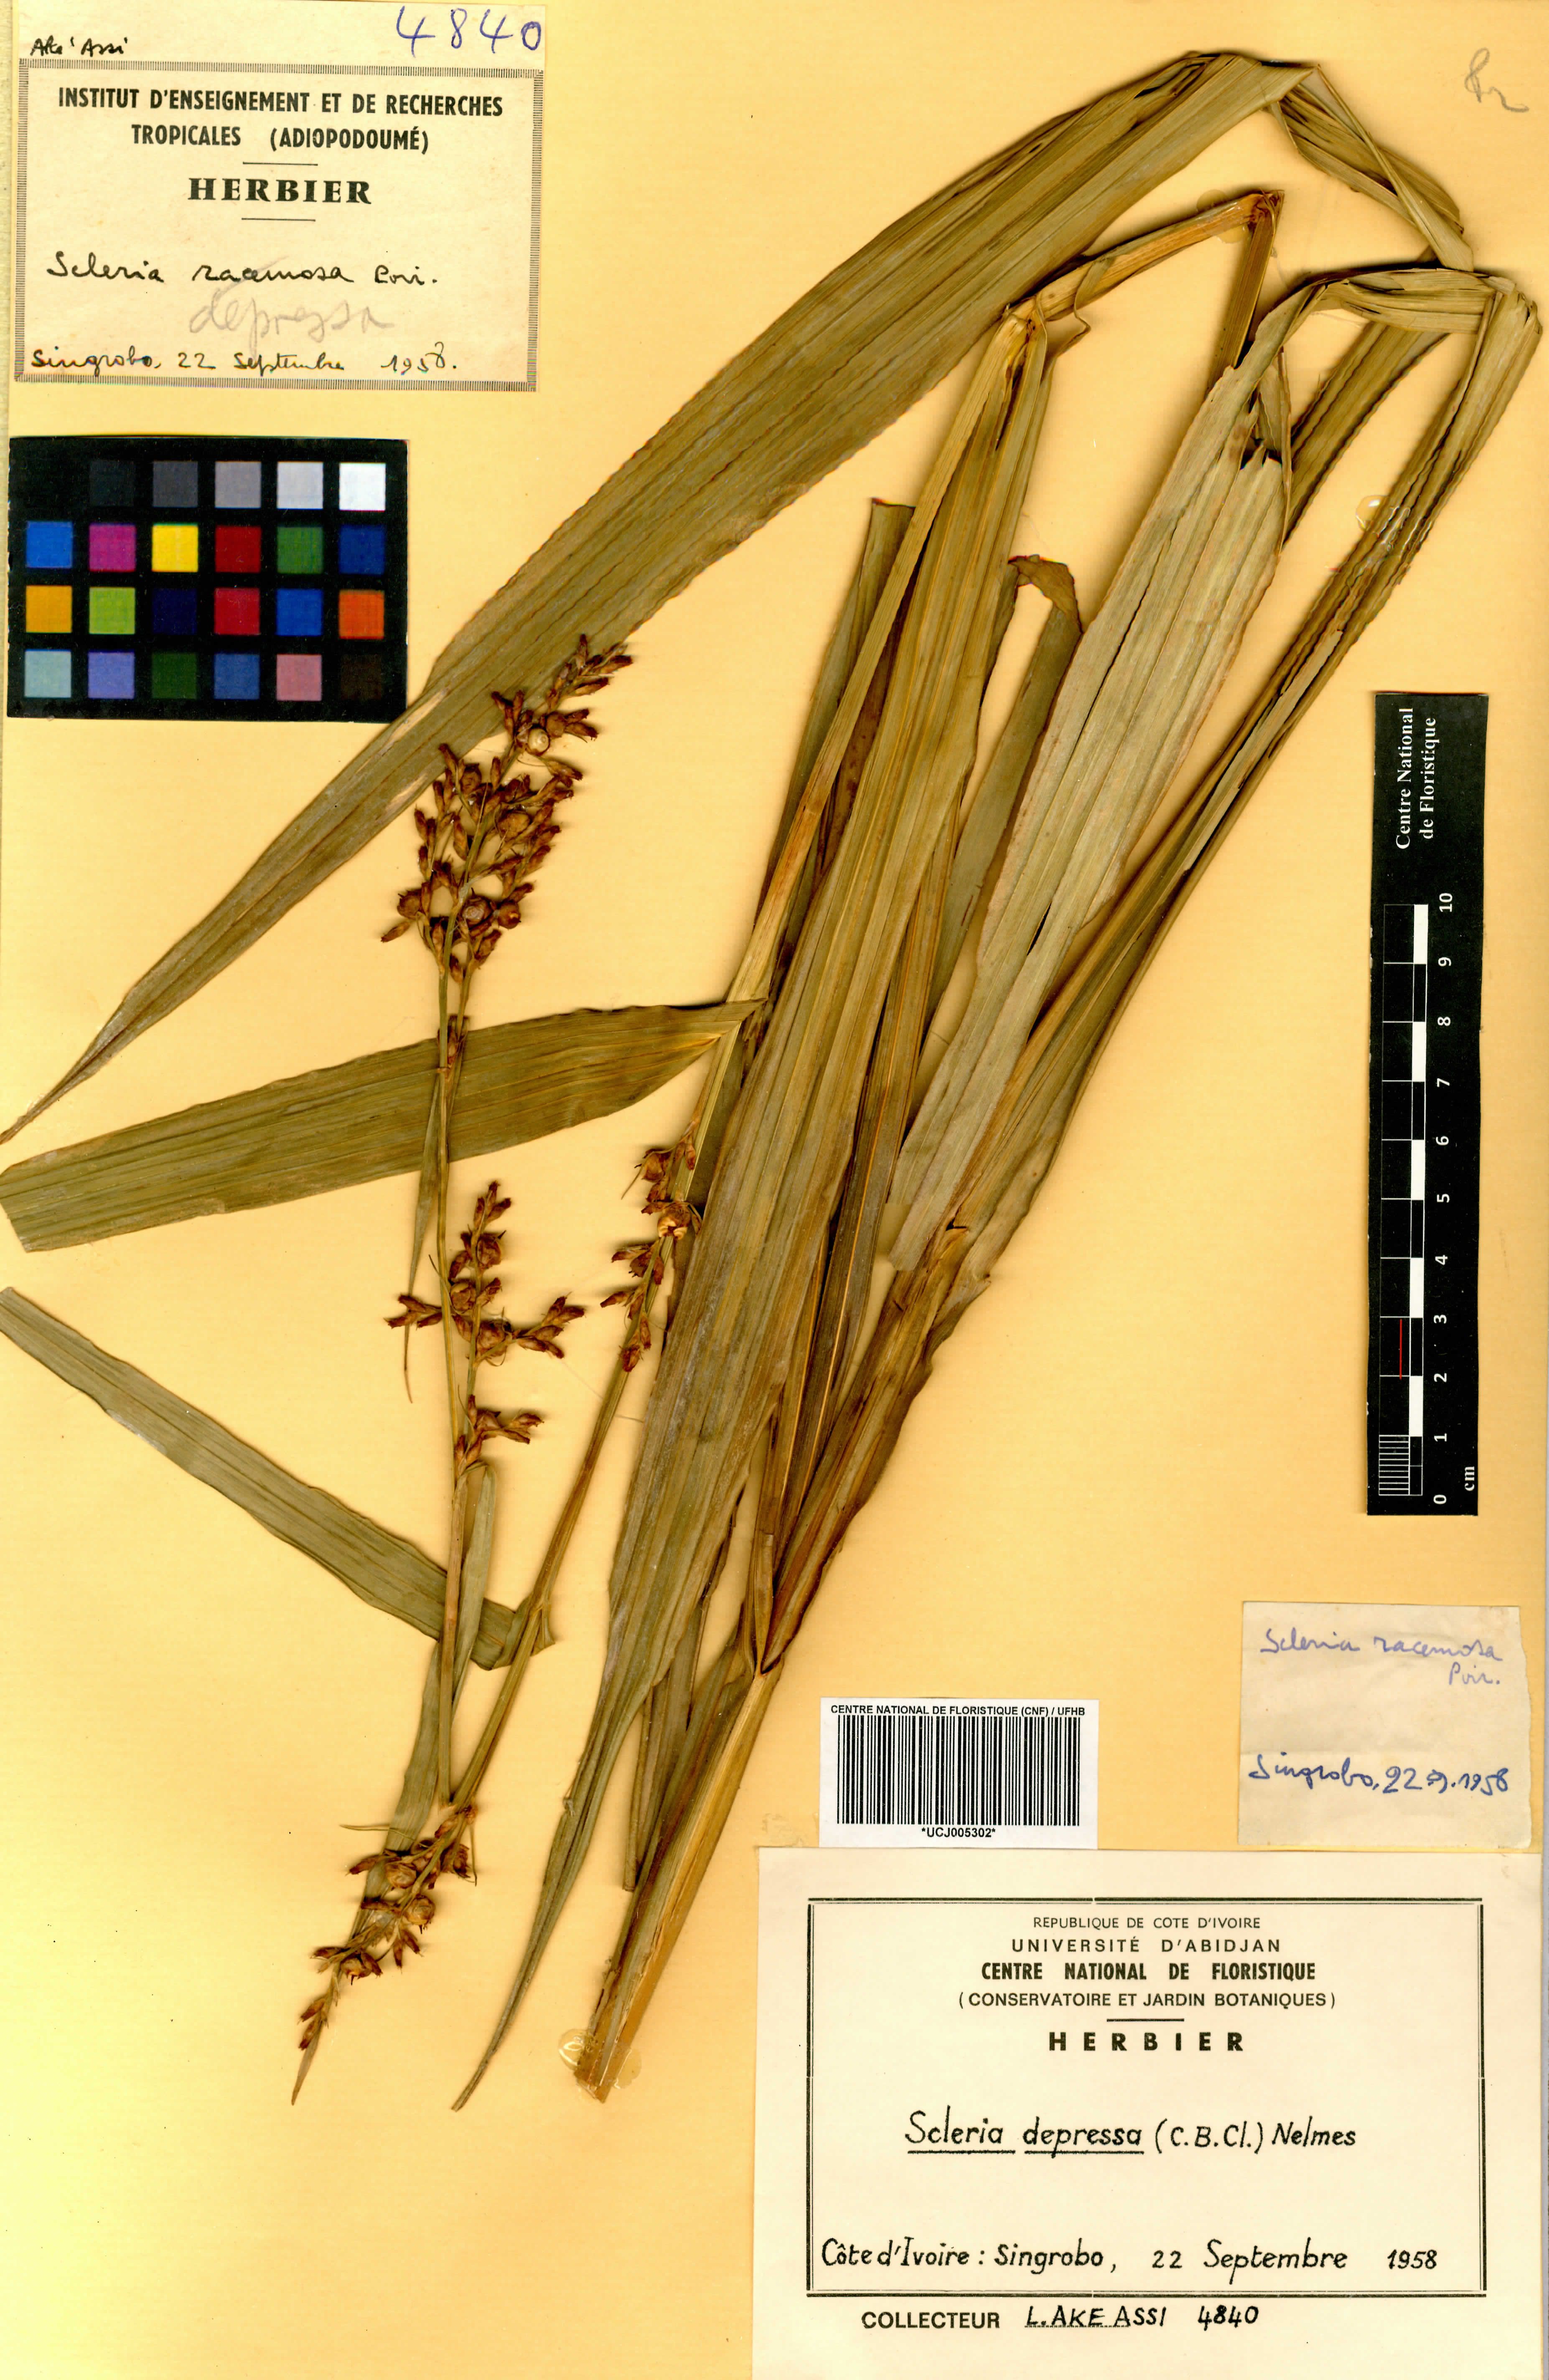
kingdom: Plantae
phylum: Tracheophyta
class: Liliopsida
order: Poales
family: Cyperaceae
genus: Scleria
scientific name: Scleria depressa
